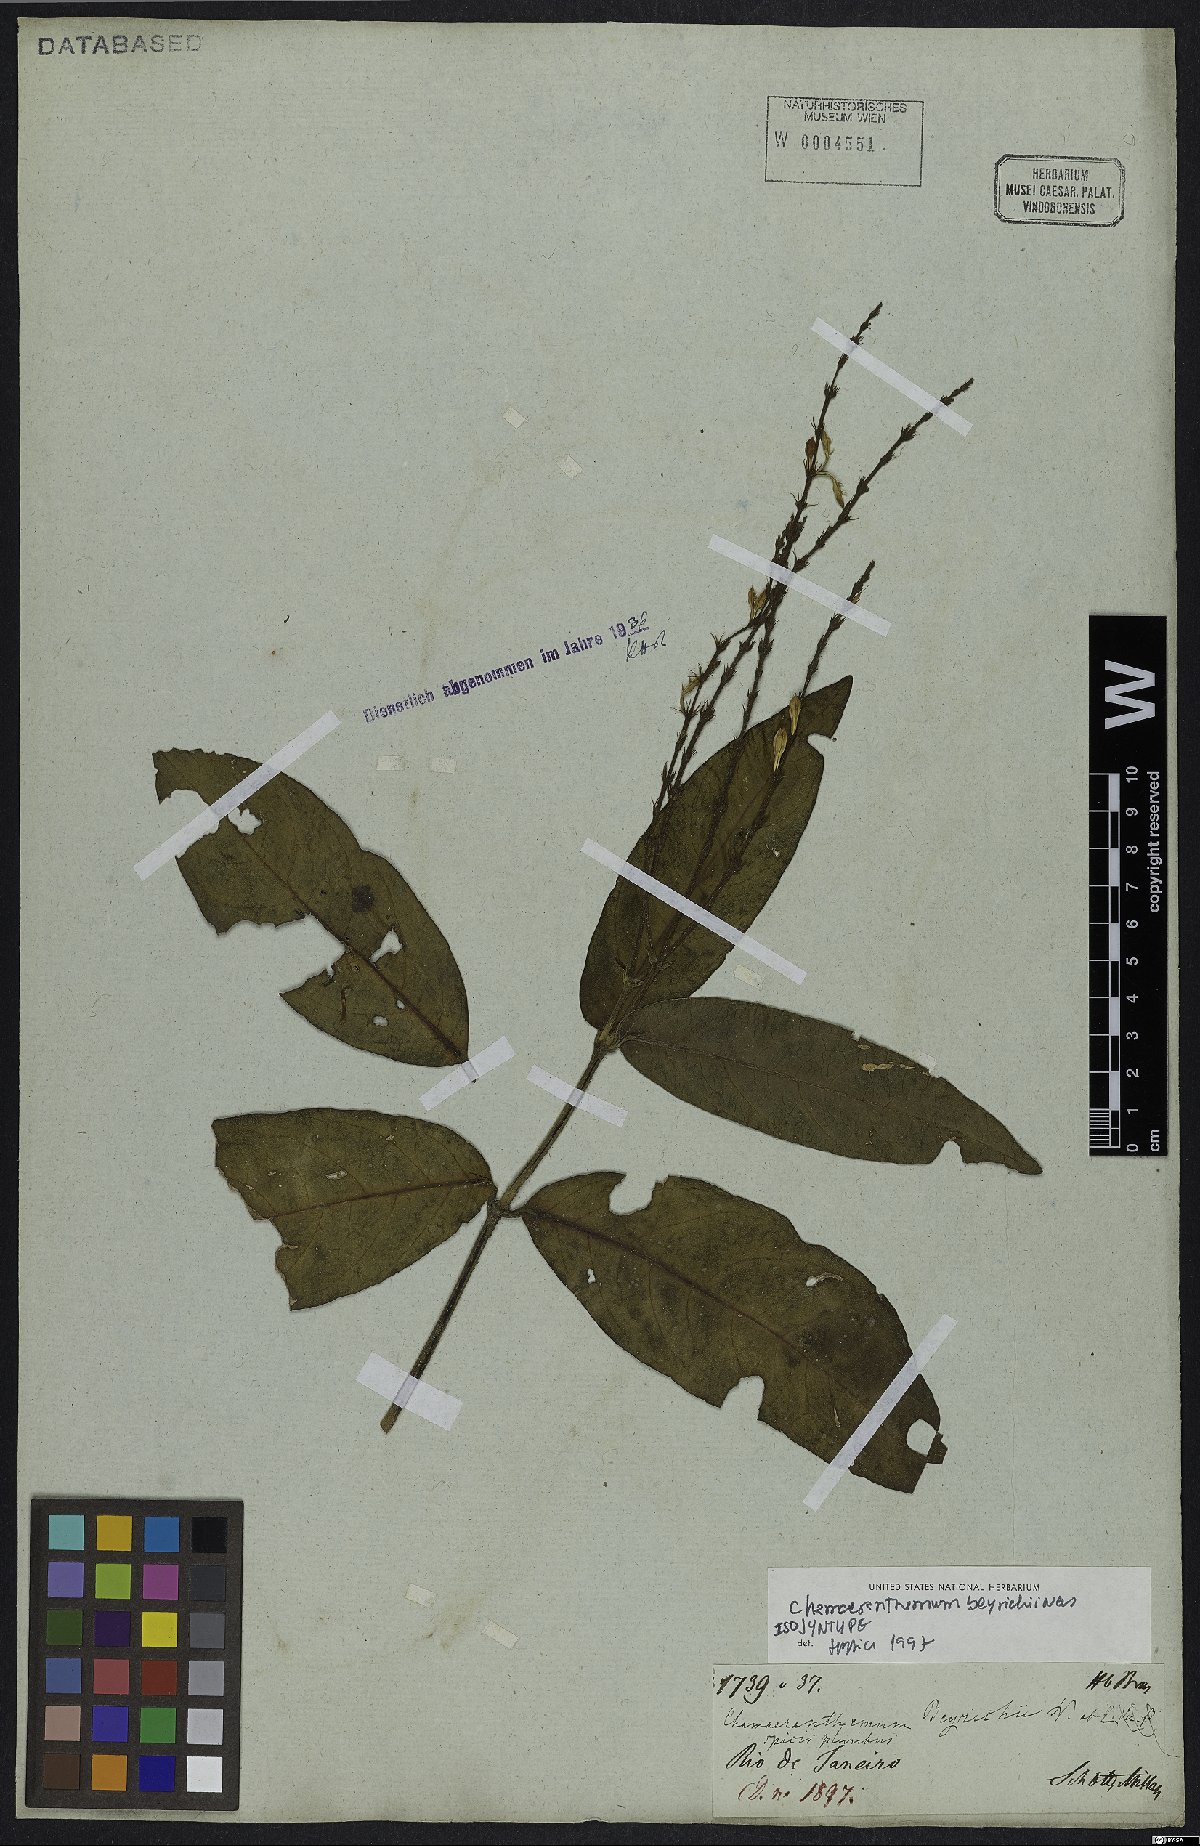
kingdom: Plantae
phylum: Tracheophyta
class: Magnoliopsida
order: Lamiales
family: Acanthaceae
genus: Chamaeranthemum
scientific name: Chamaeranthemum beyrichii
